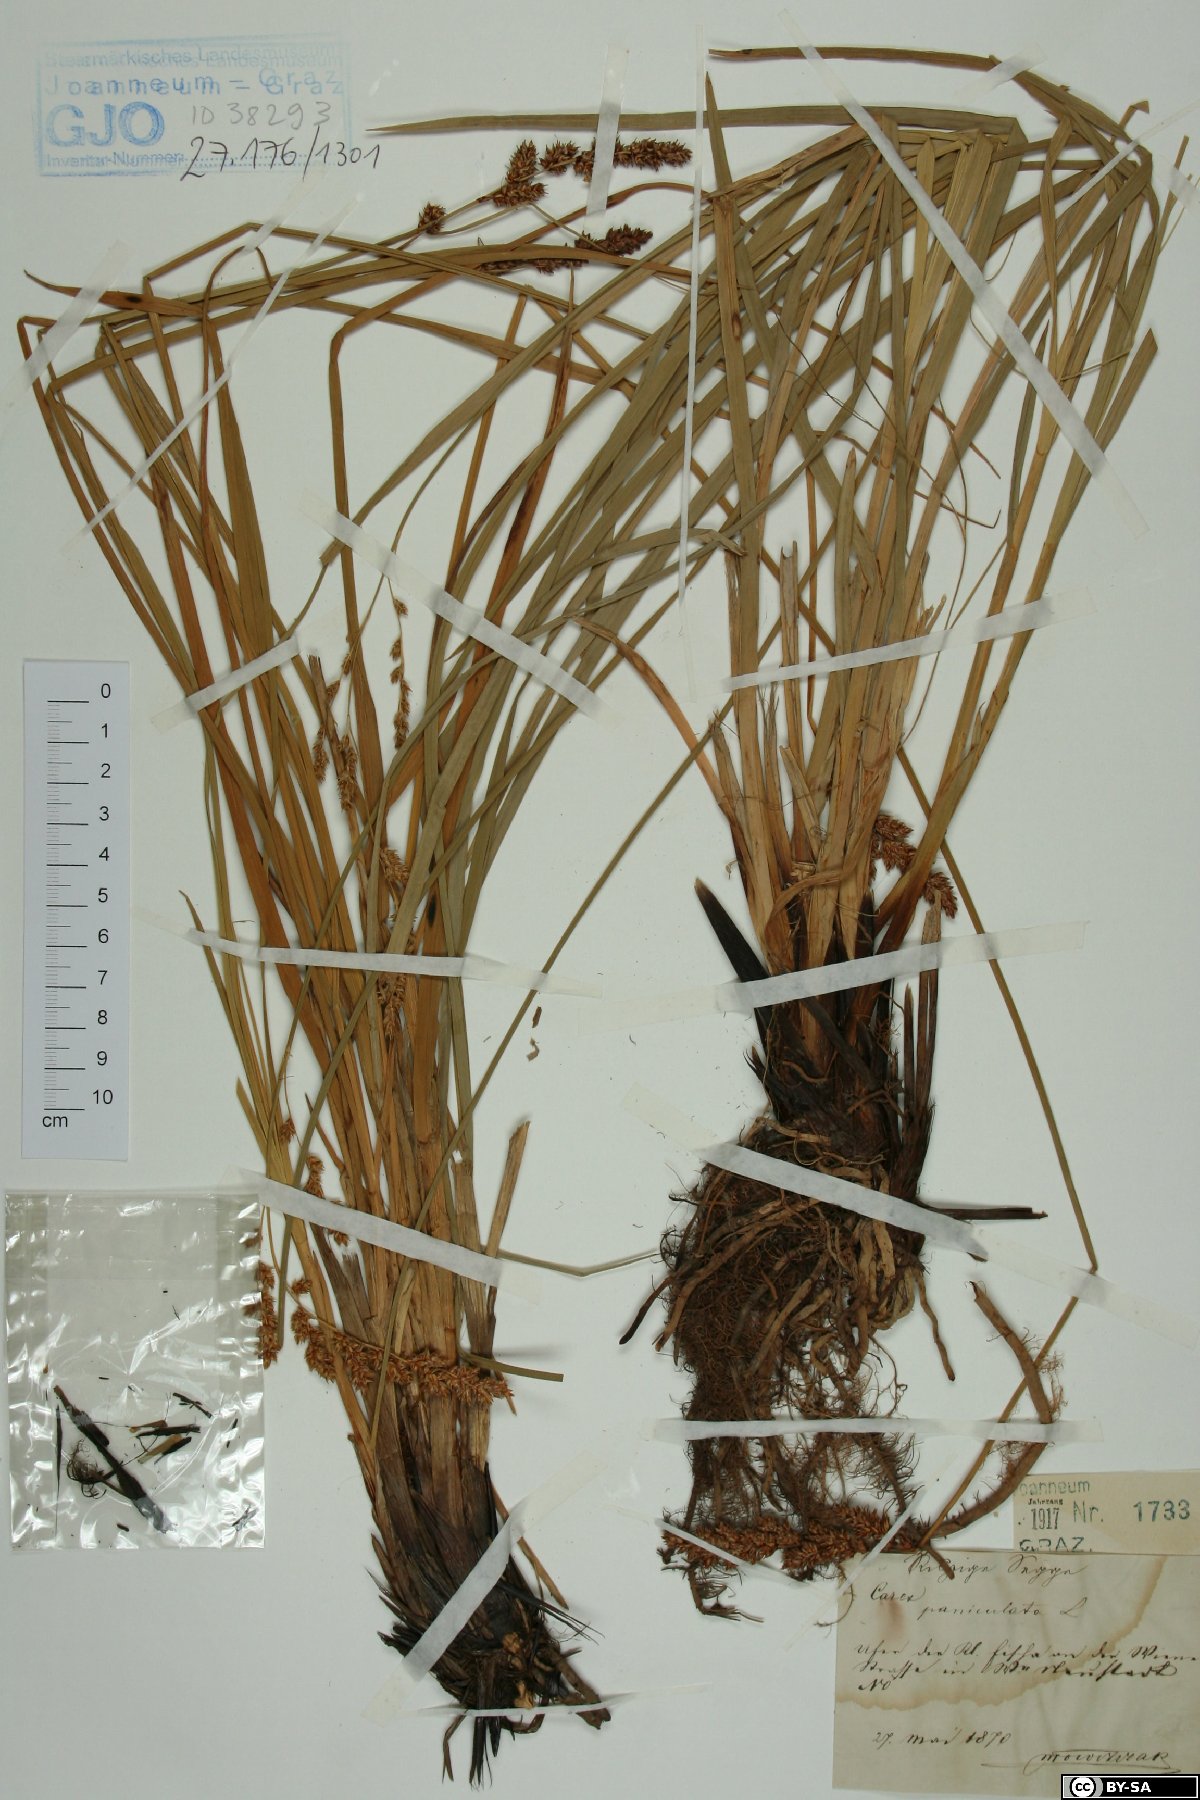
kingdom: Plantae
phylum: Tracheophyta
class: Liliopsida
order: Poales
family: Cyperaceae
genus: Carex
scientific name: Carex paniculata
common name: Greater tussock-sedge
